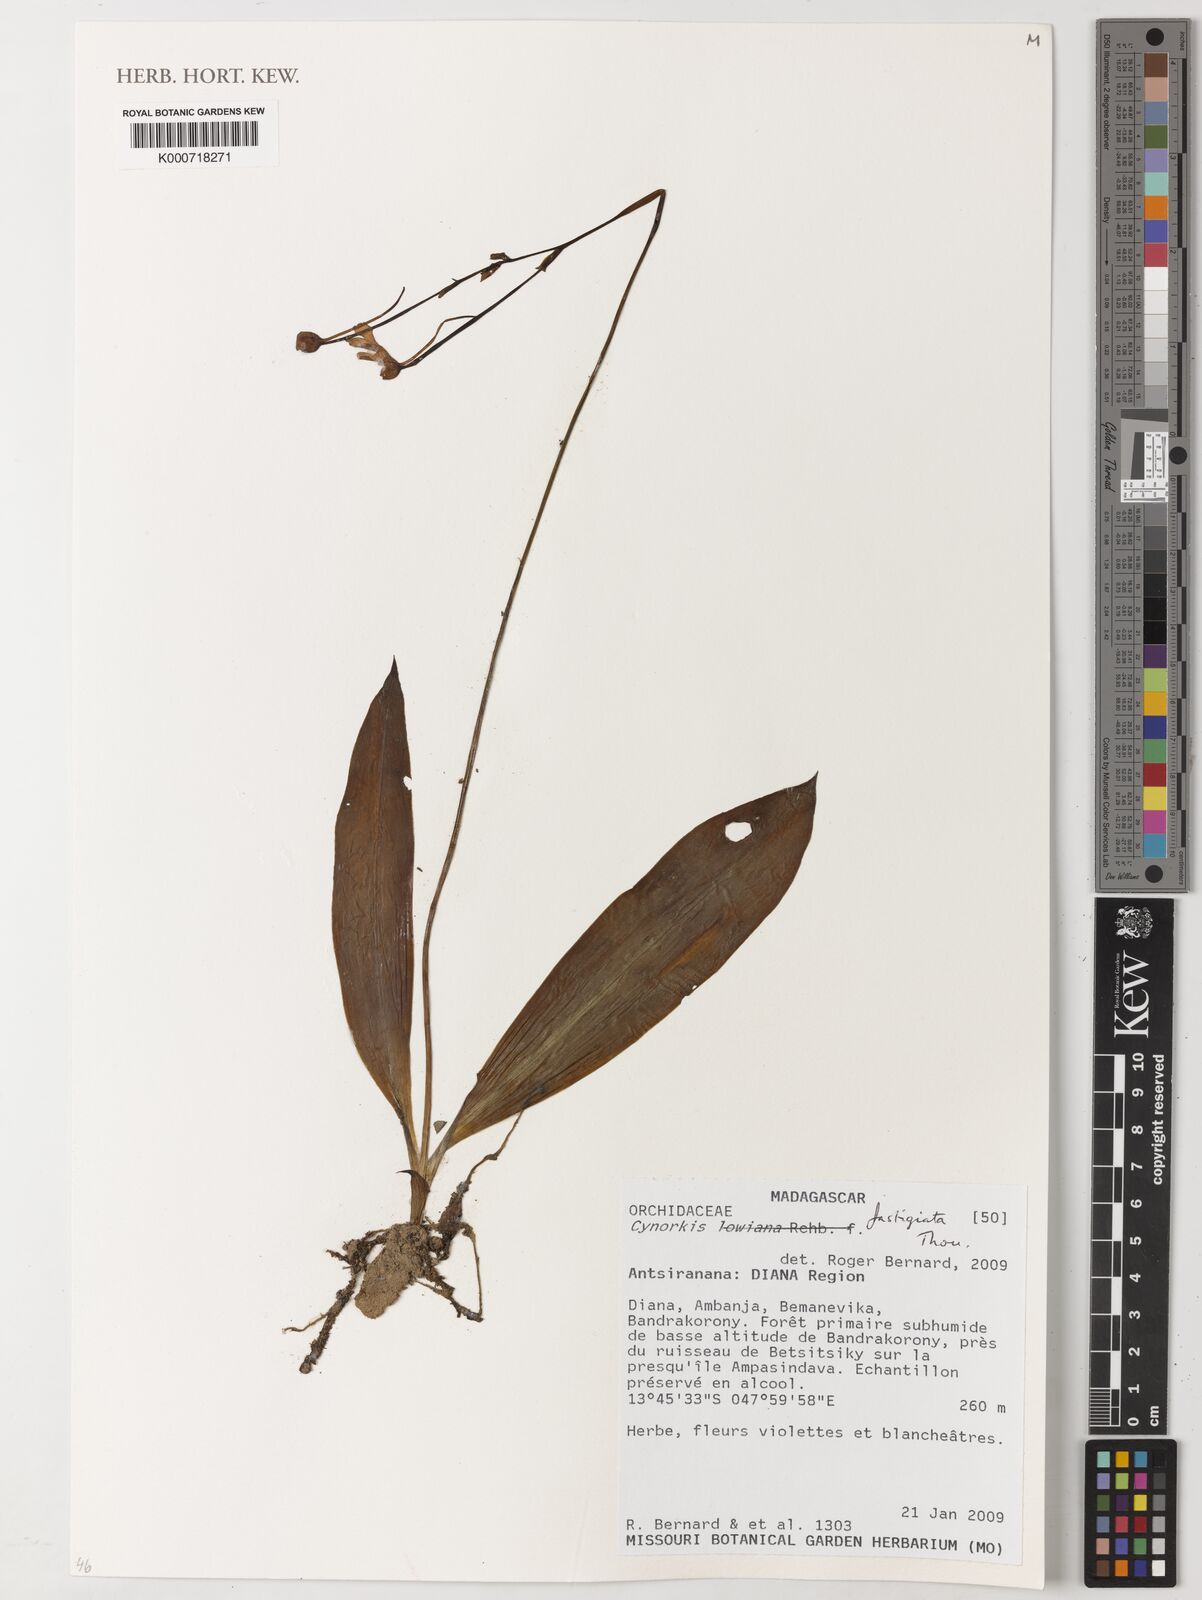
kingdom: Plantae
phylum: Tracheophyta
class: Liliopsida
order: Asparagales
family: Orchidaceae
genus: Cynorkis
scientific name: Cynorkis lowiana
